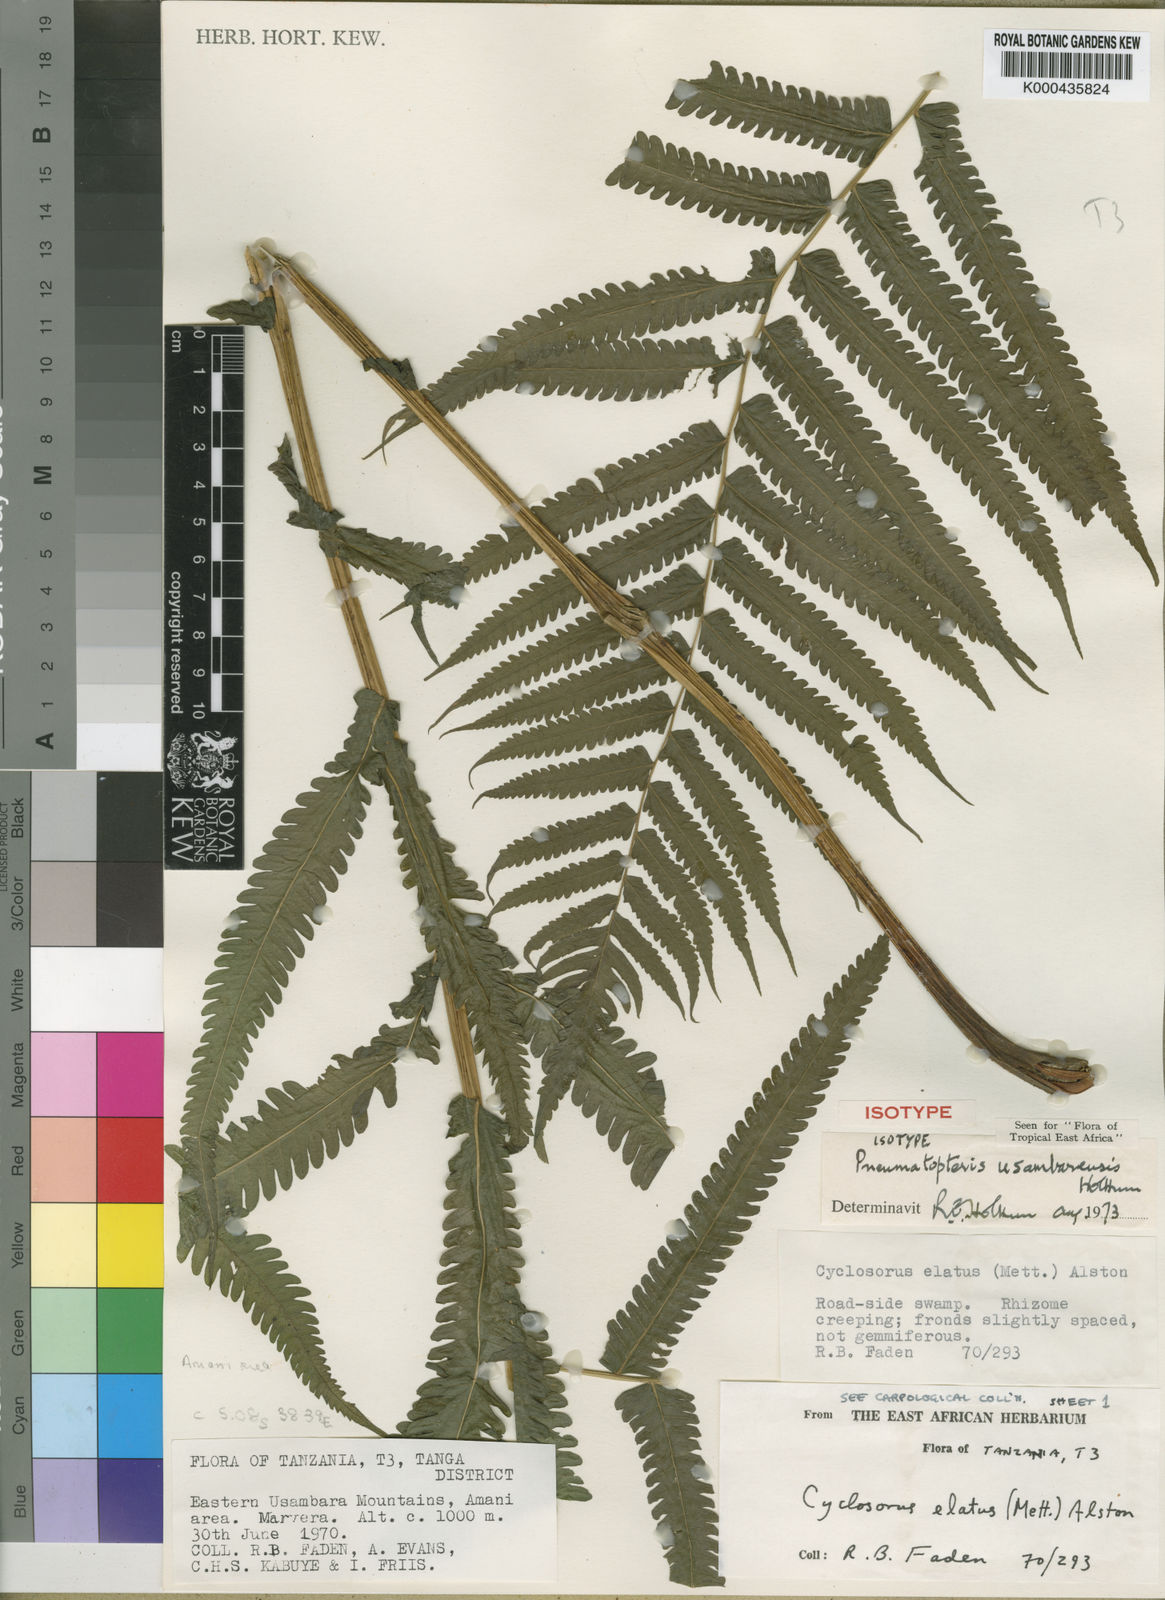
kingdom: Plantae
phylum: Tracheophyta
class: Polypodiopsida
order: Polypodiales
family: Thelypteridaceae
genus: Pneumatopteris
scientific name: Pneumatopteris usambarensis
